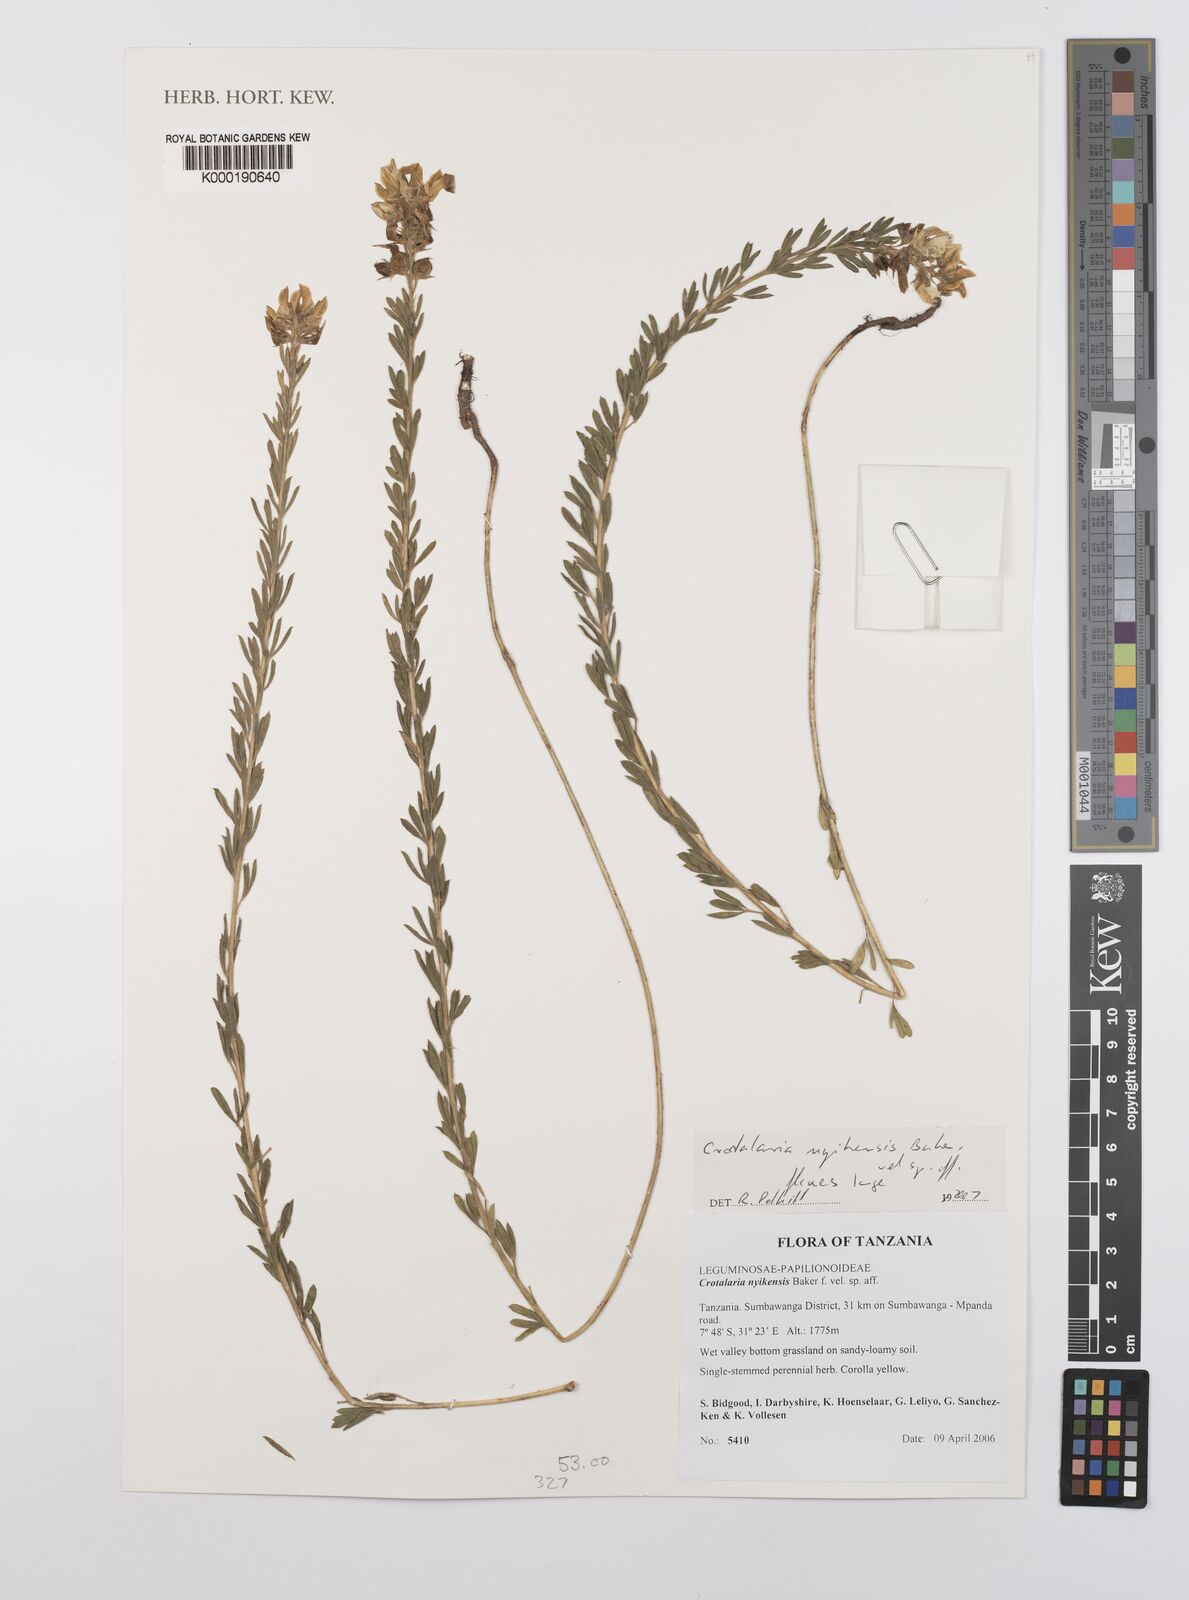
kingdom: Plantae
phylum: Tracheophyta
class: Magnoliopsida
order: Fabales
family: Fabaceae
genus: Crotalaria
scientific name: Crotalaria
